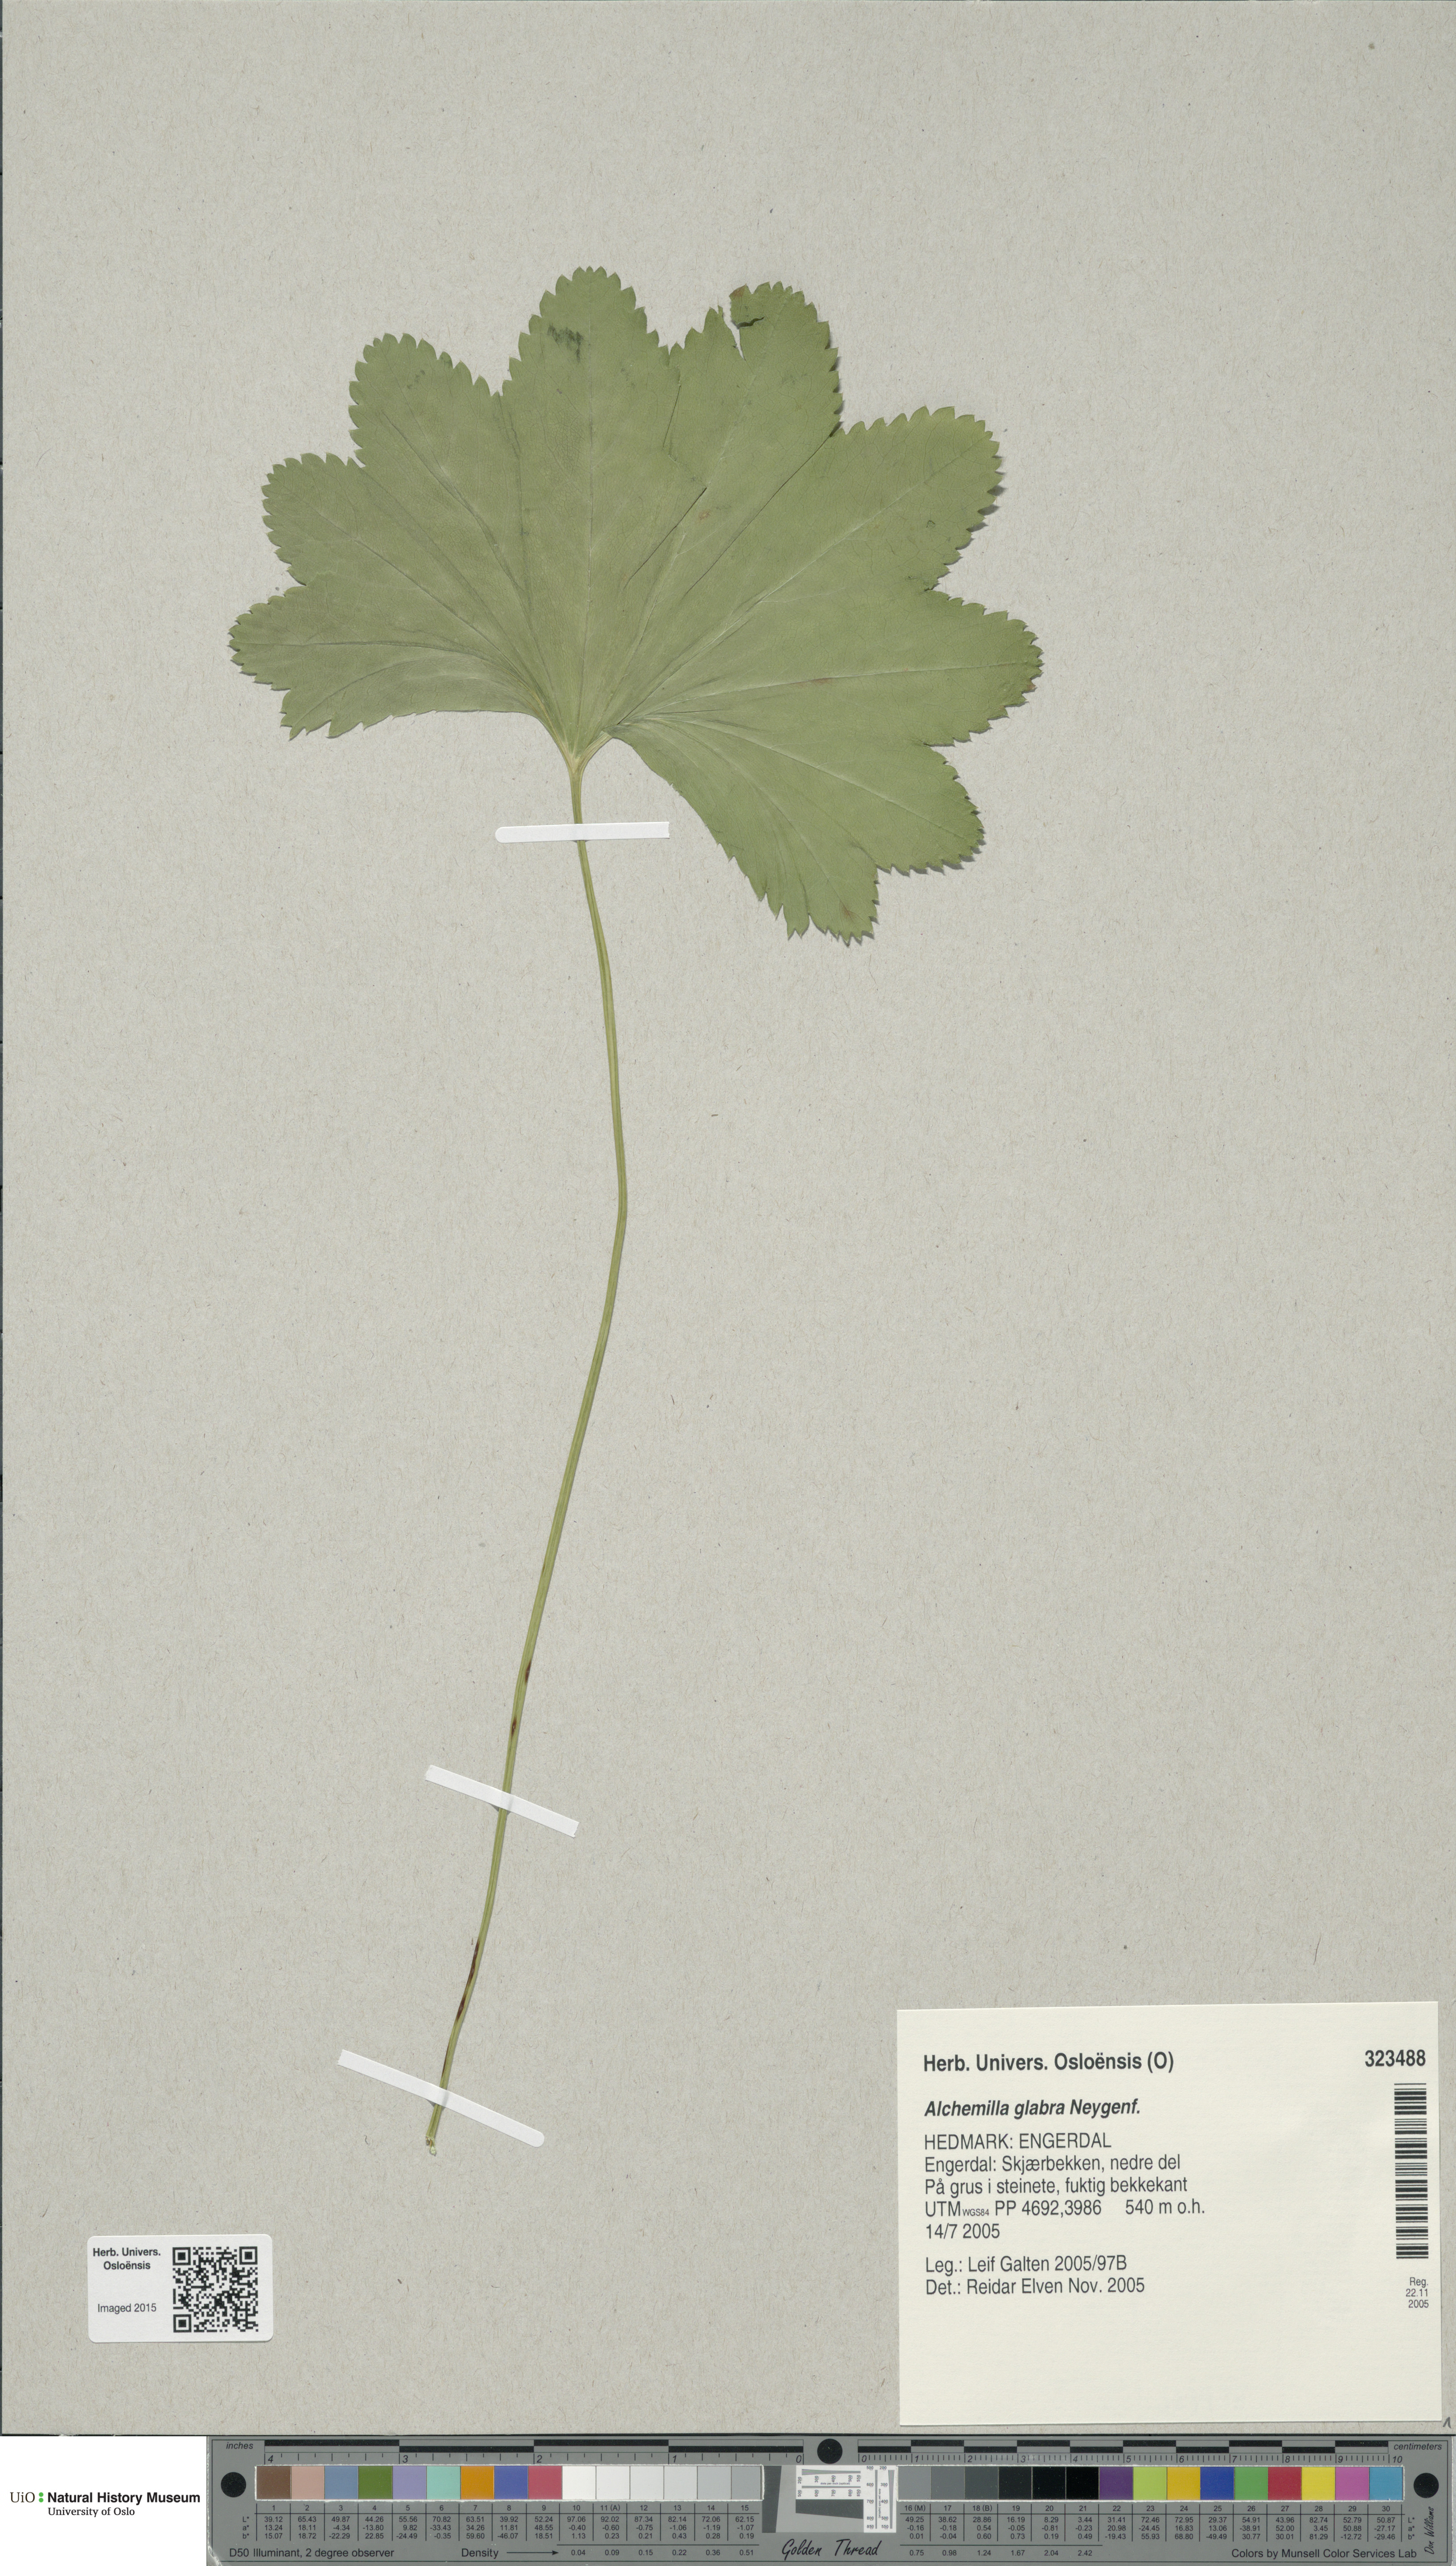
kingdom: Plantae
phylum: Tracheophyta
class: Magnoliopsida
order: Rosales
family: Rosaceae
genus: Alchemilla
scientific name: Alchemilla glabra
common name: Smooth lady's-mantle
